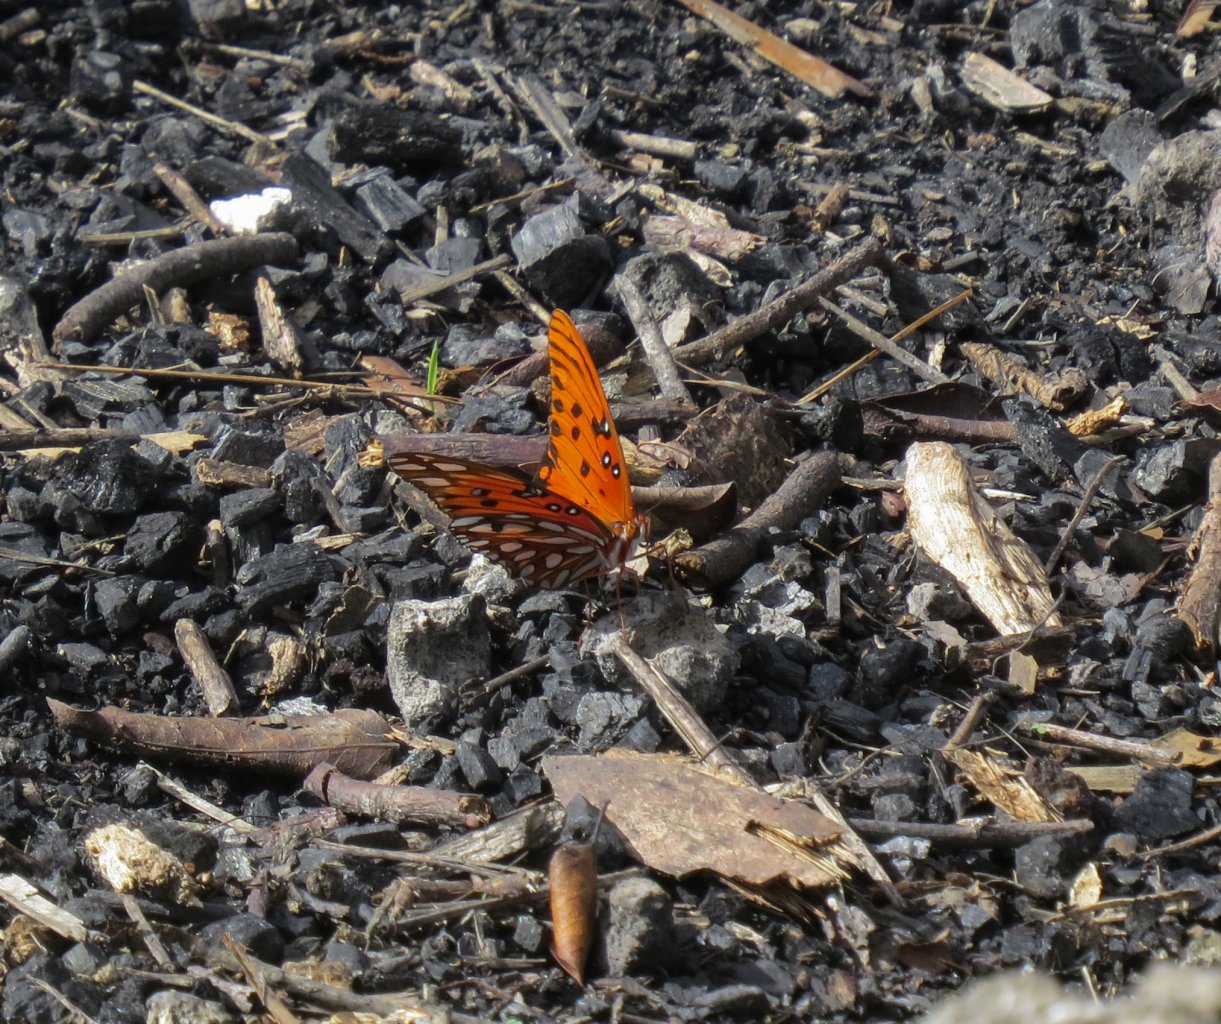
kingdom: Animalia
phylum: Arthropoda
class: Insecta
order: Lepidoptera
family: Nymphalidae
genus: Dione
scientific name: Dione vanillae
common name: Gulf Fritillary
